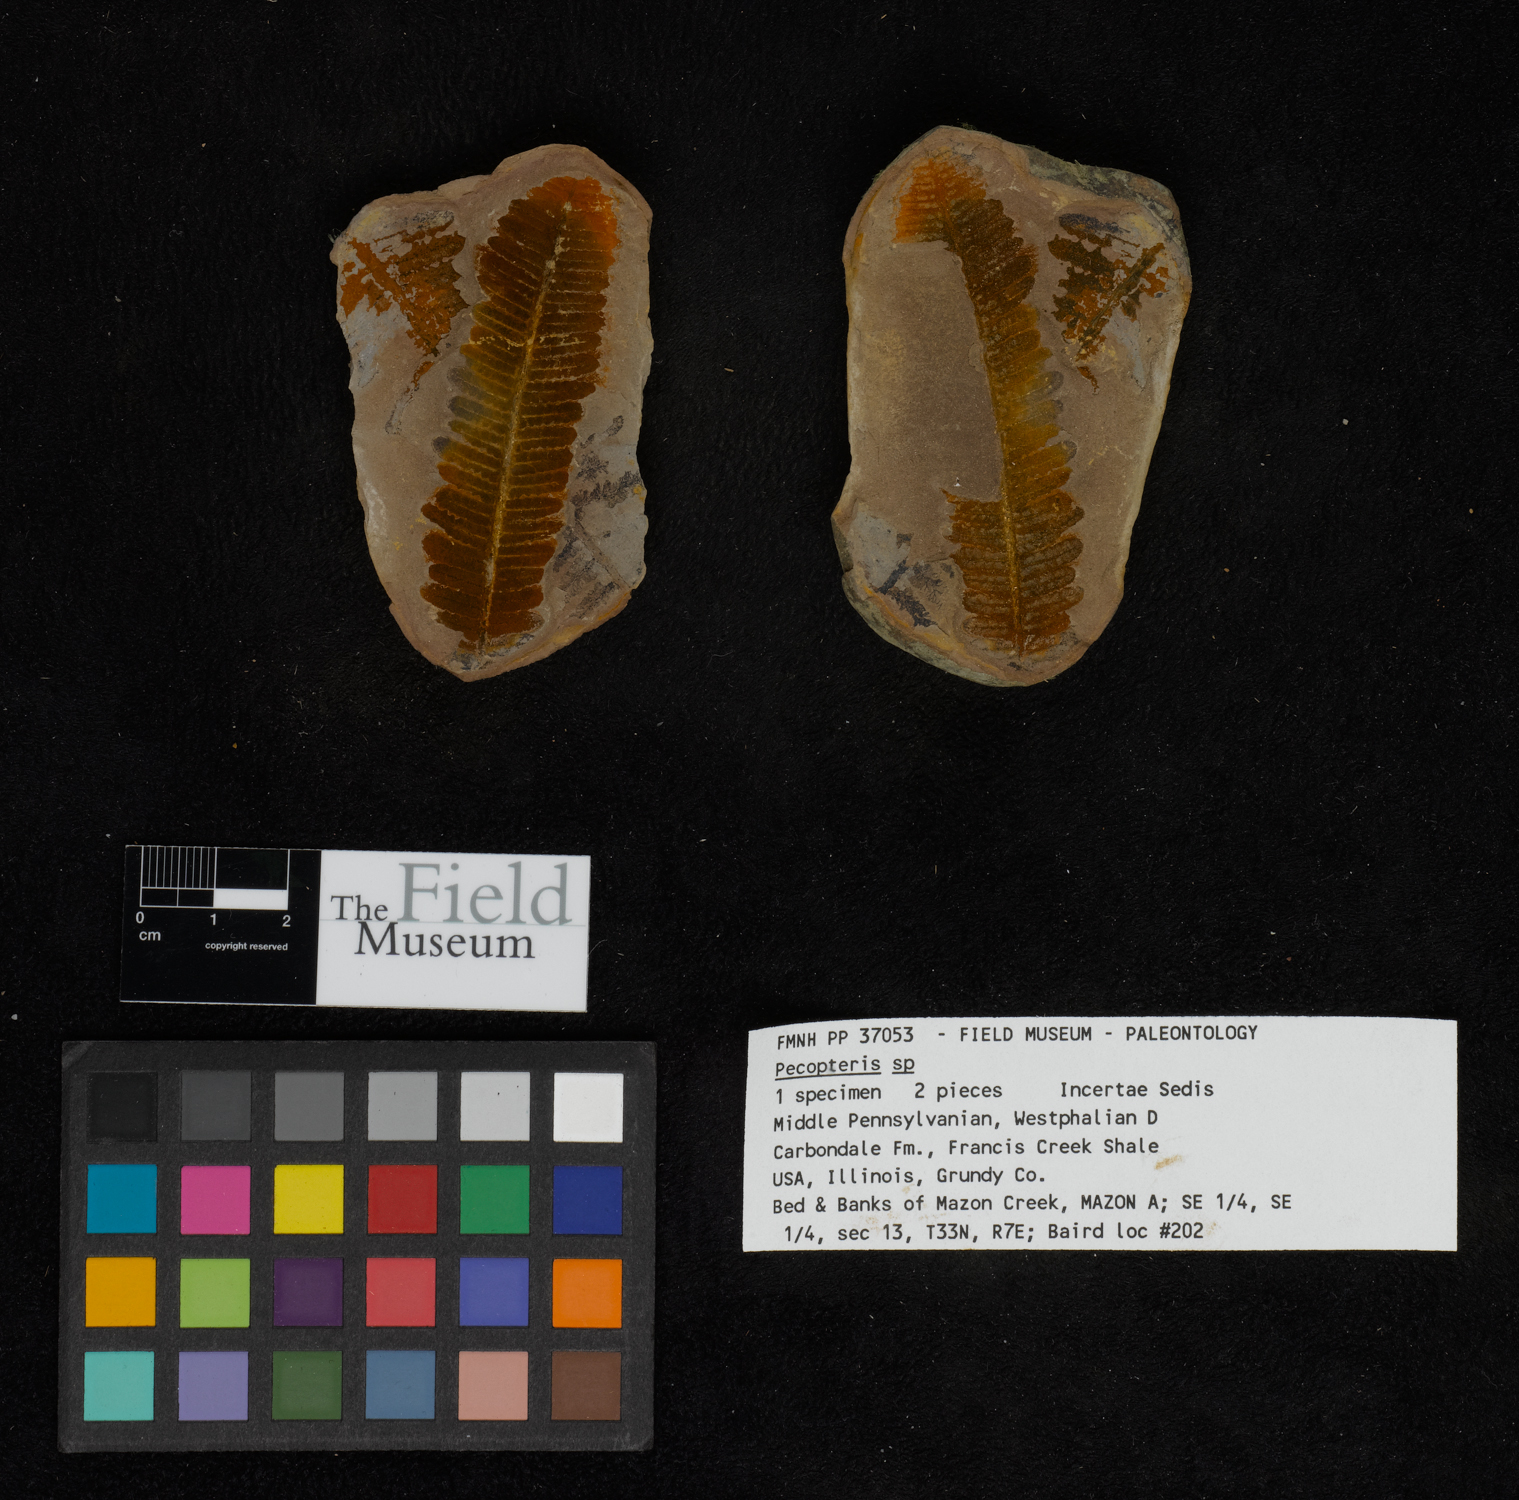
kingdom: Plantae
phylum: Tracheophyta
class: Polypodiopsida
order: Marattiales
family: Asterothecaceae
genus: Pecopteris
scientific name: Pecopteris
